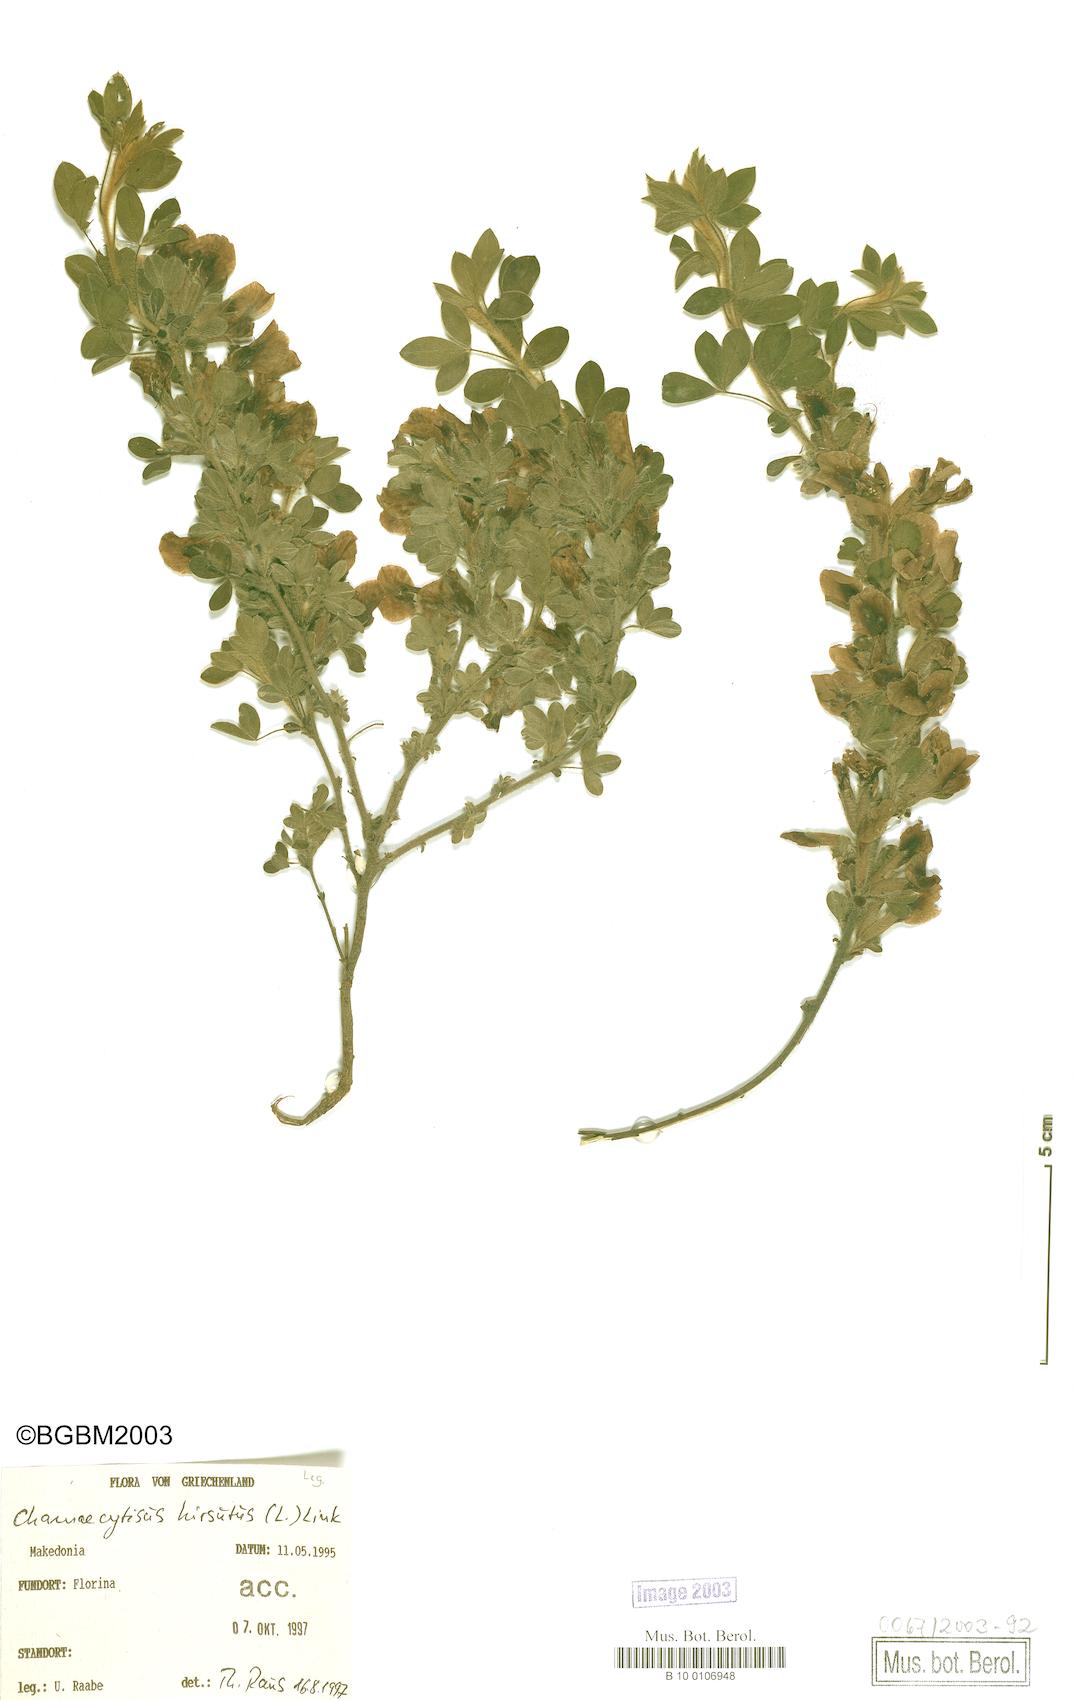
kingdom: Plantae
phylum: Tracheophyta
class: Magnoliopsida
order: Fabales
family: Fabaceae
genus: Chamaecytisus
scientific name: Chamaecytisus hirsutus
